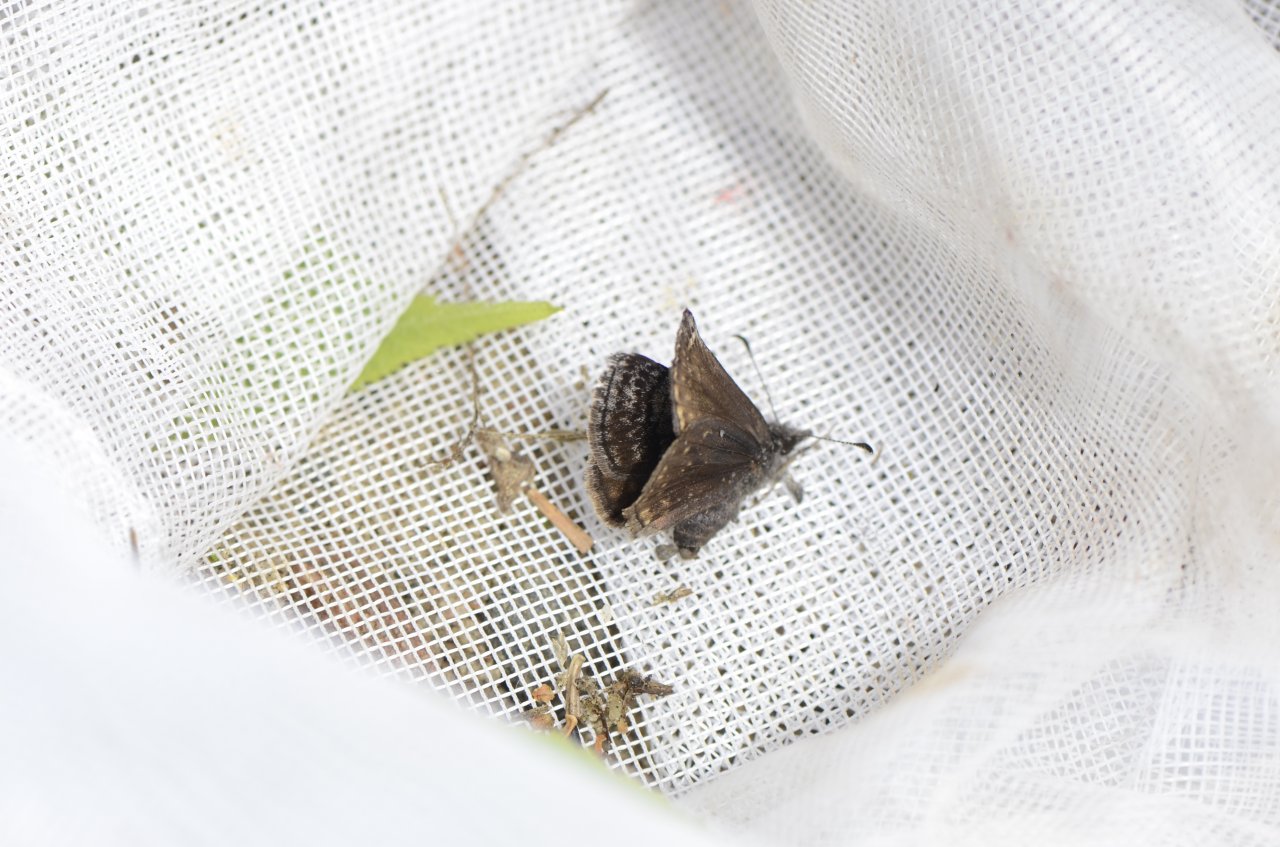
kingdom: Animalia
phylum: Arthropoda
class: Insecta
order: Lepidoptera
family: Hesperiidae
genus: Erynnis
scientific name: Erynnis icelus
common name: Dreamy Duskywing
